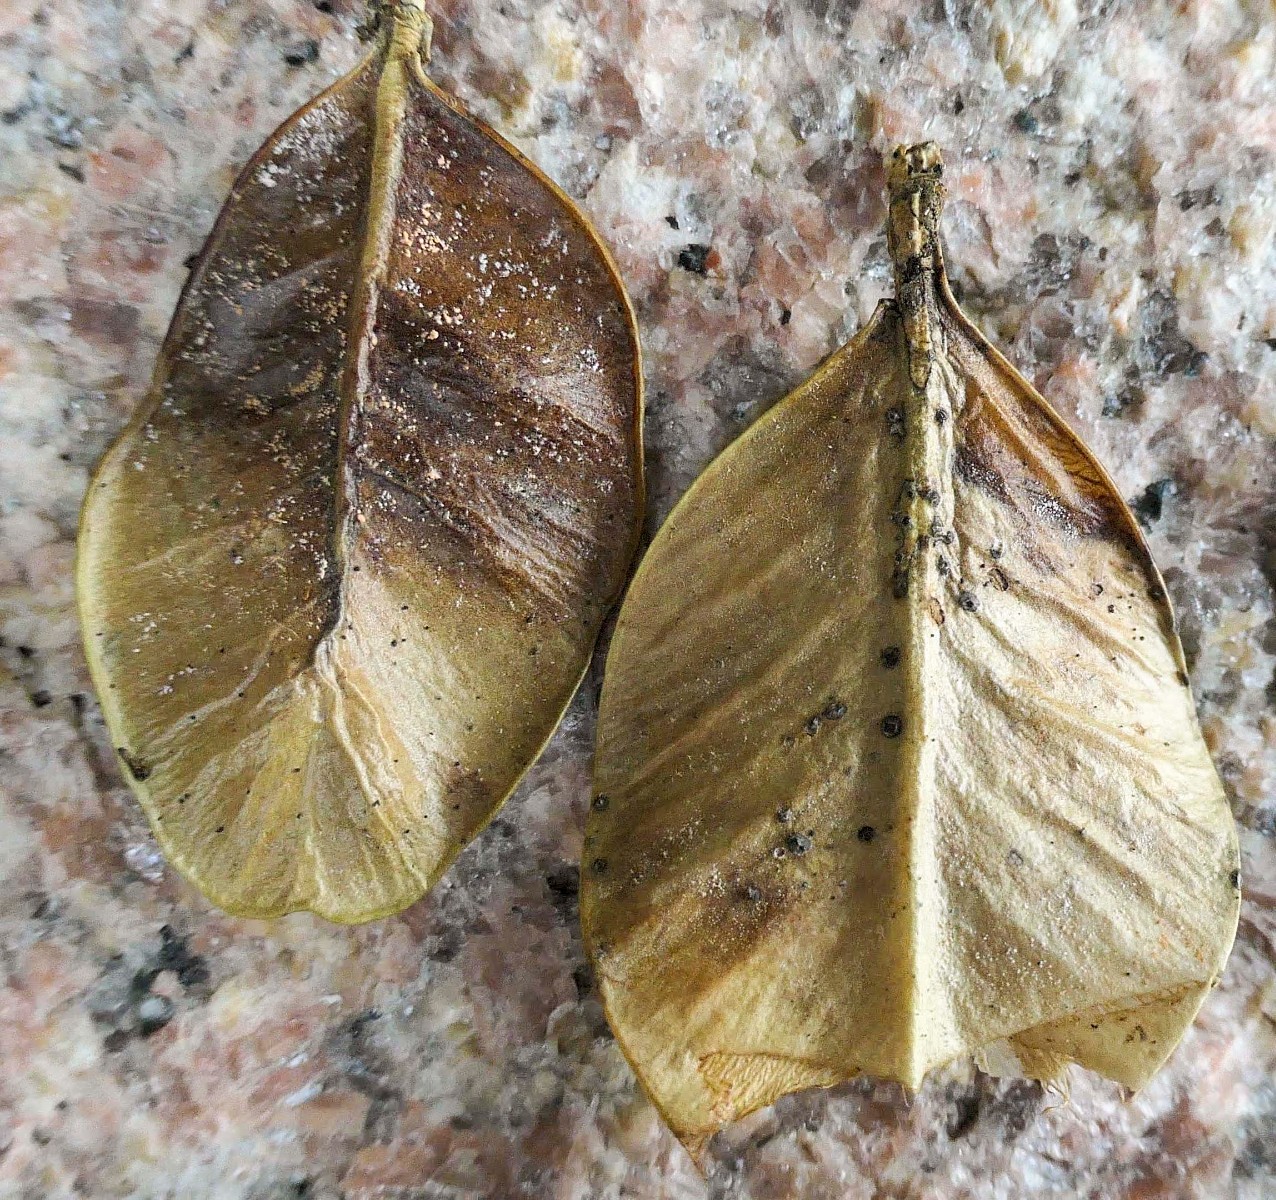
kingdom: Fungi
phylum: Ascomycota
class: Sordariomycetes
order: Hypocreales
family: Nectriaceae
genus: Pseudonectria
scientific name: Pseudonectria buxi
